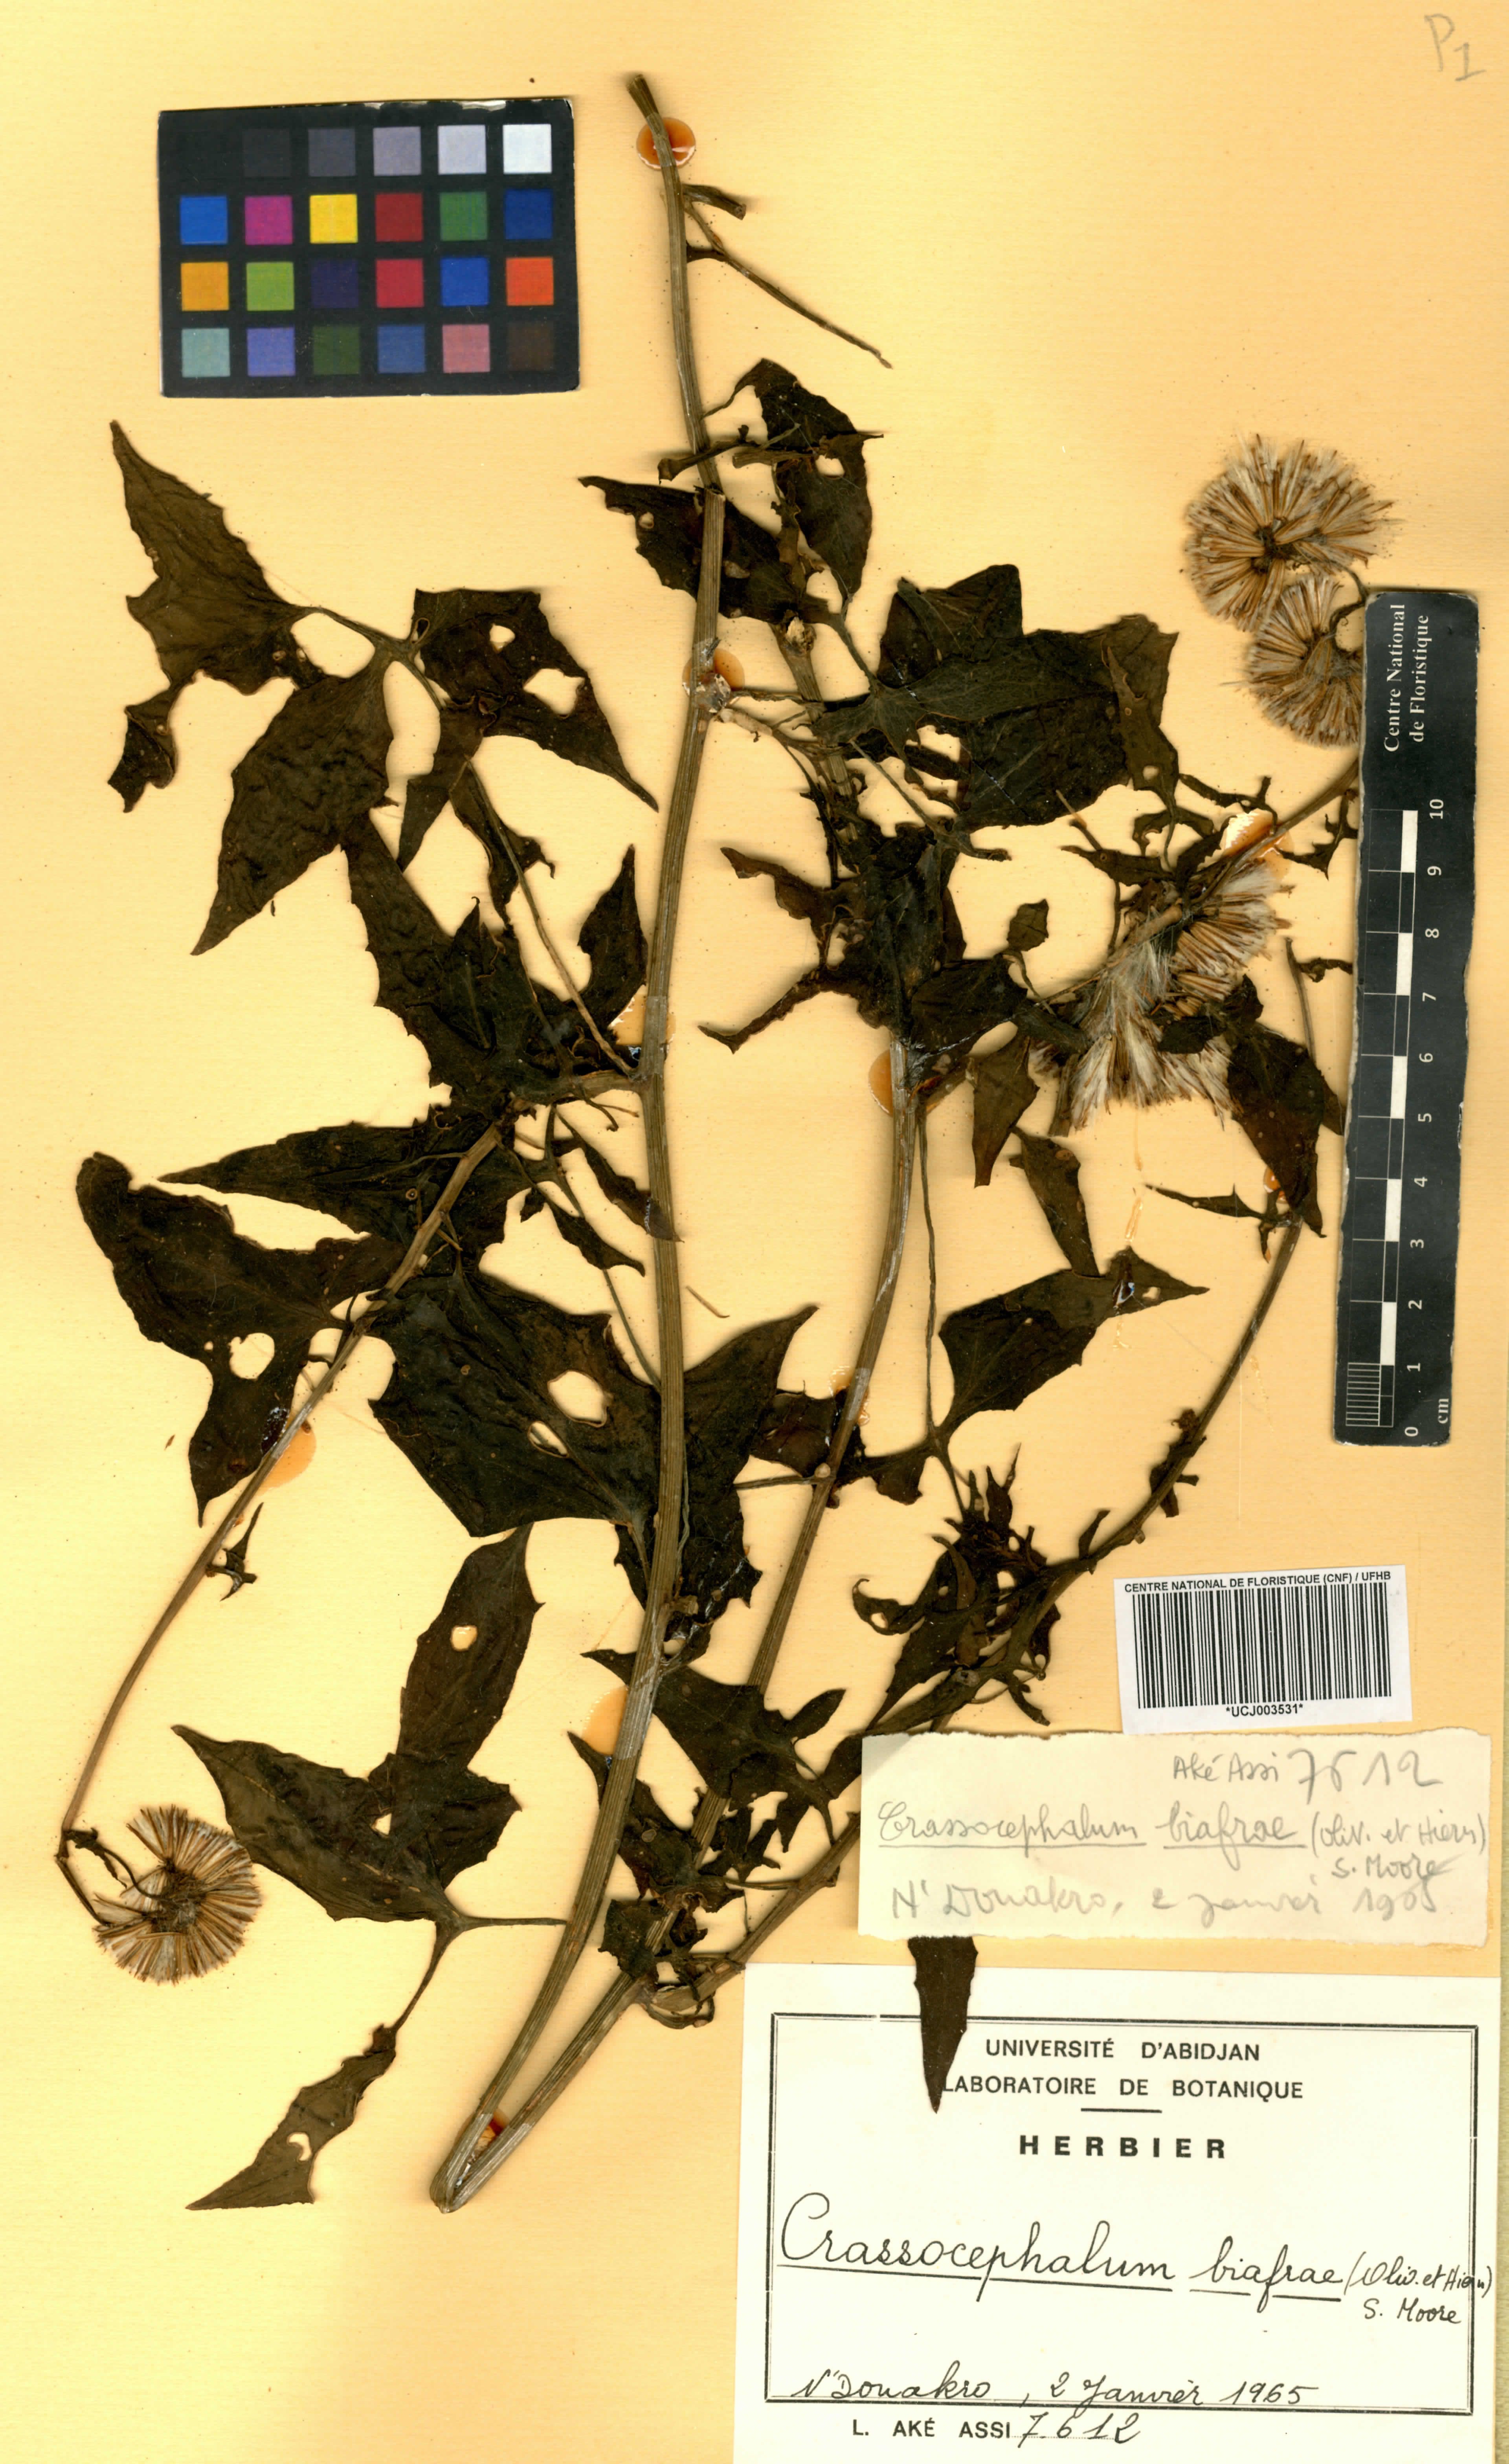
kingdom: Plantae
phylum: Tracheophyta
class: Magnoliopsida
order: Asterales
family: Asteraceae
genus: Solanecio
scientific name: Solanecio biafrae
